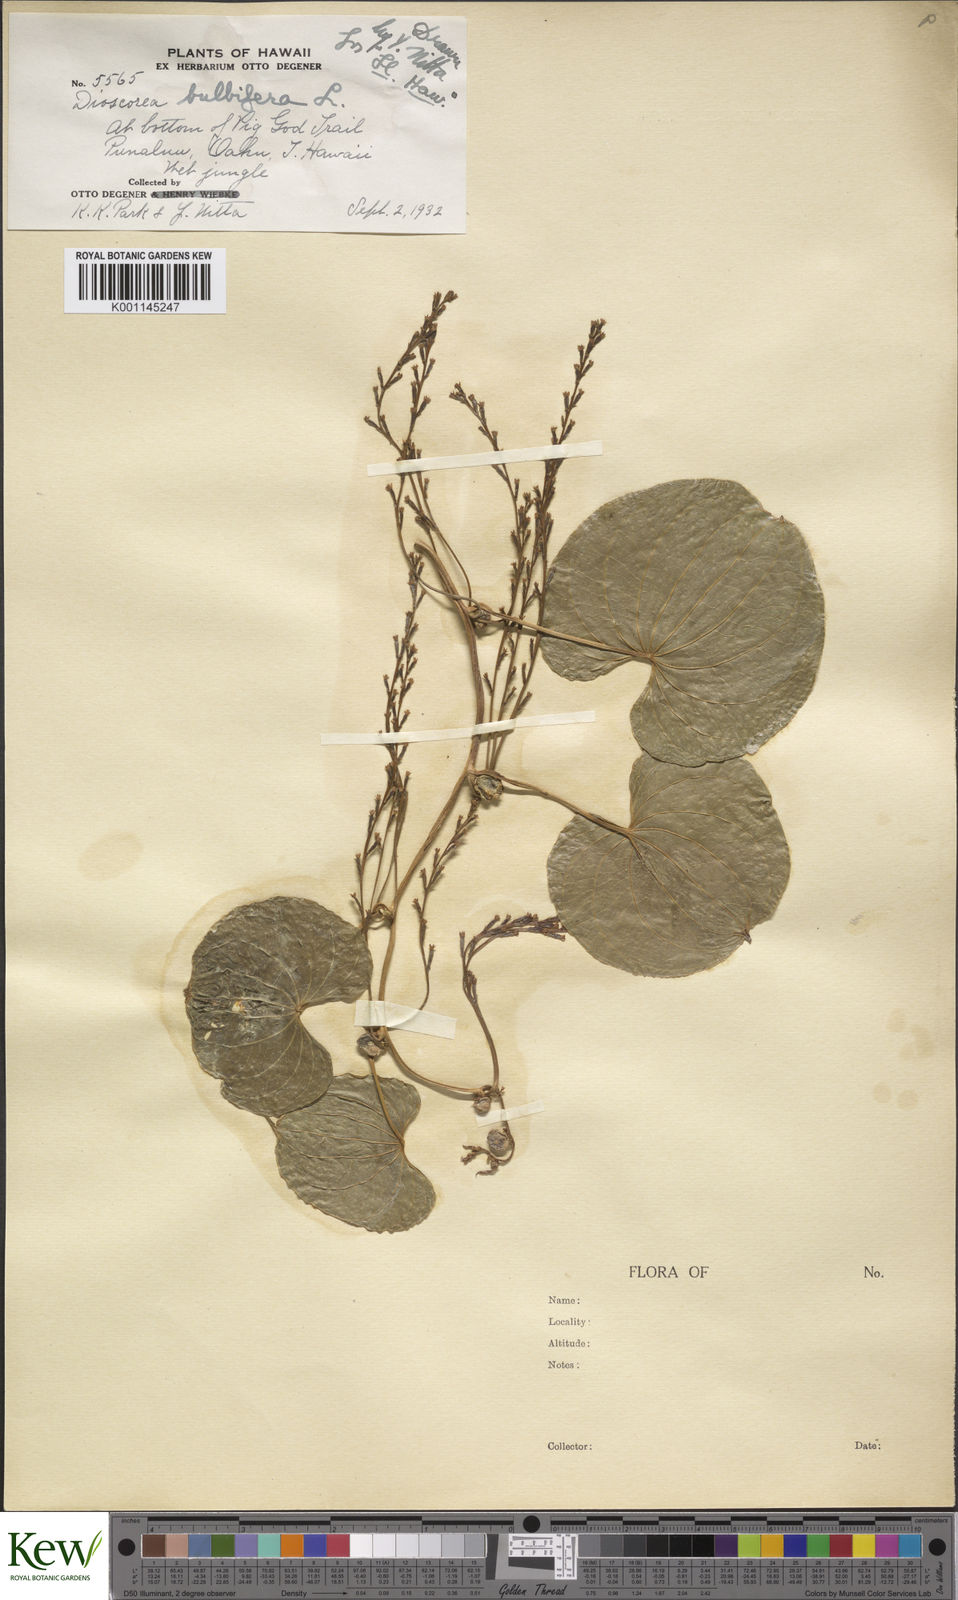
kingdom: Plantae
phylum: Tracheophyta
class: Liliopsida
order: Dioscoreales
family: Dioscoreaceae
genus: Dioscorea
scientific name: Dioscorea bulbifera
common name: Air yam
